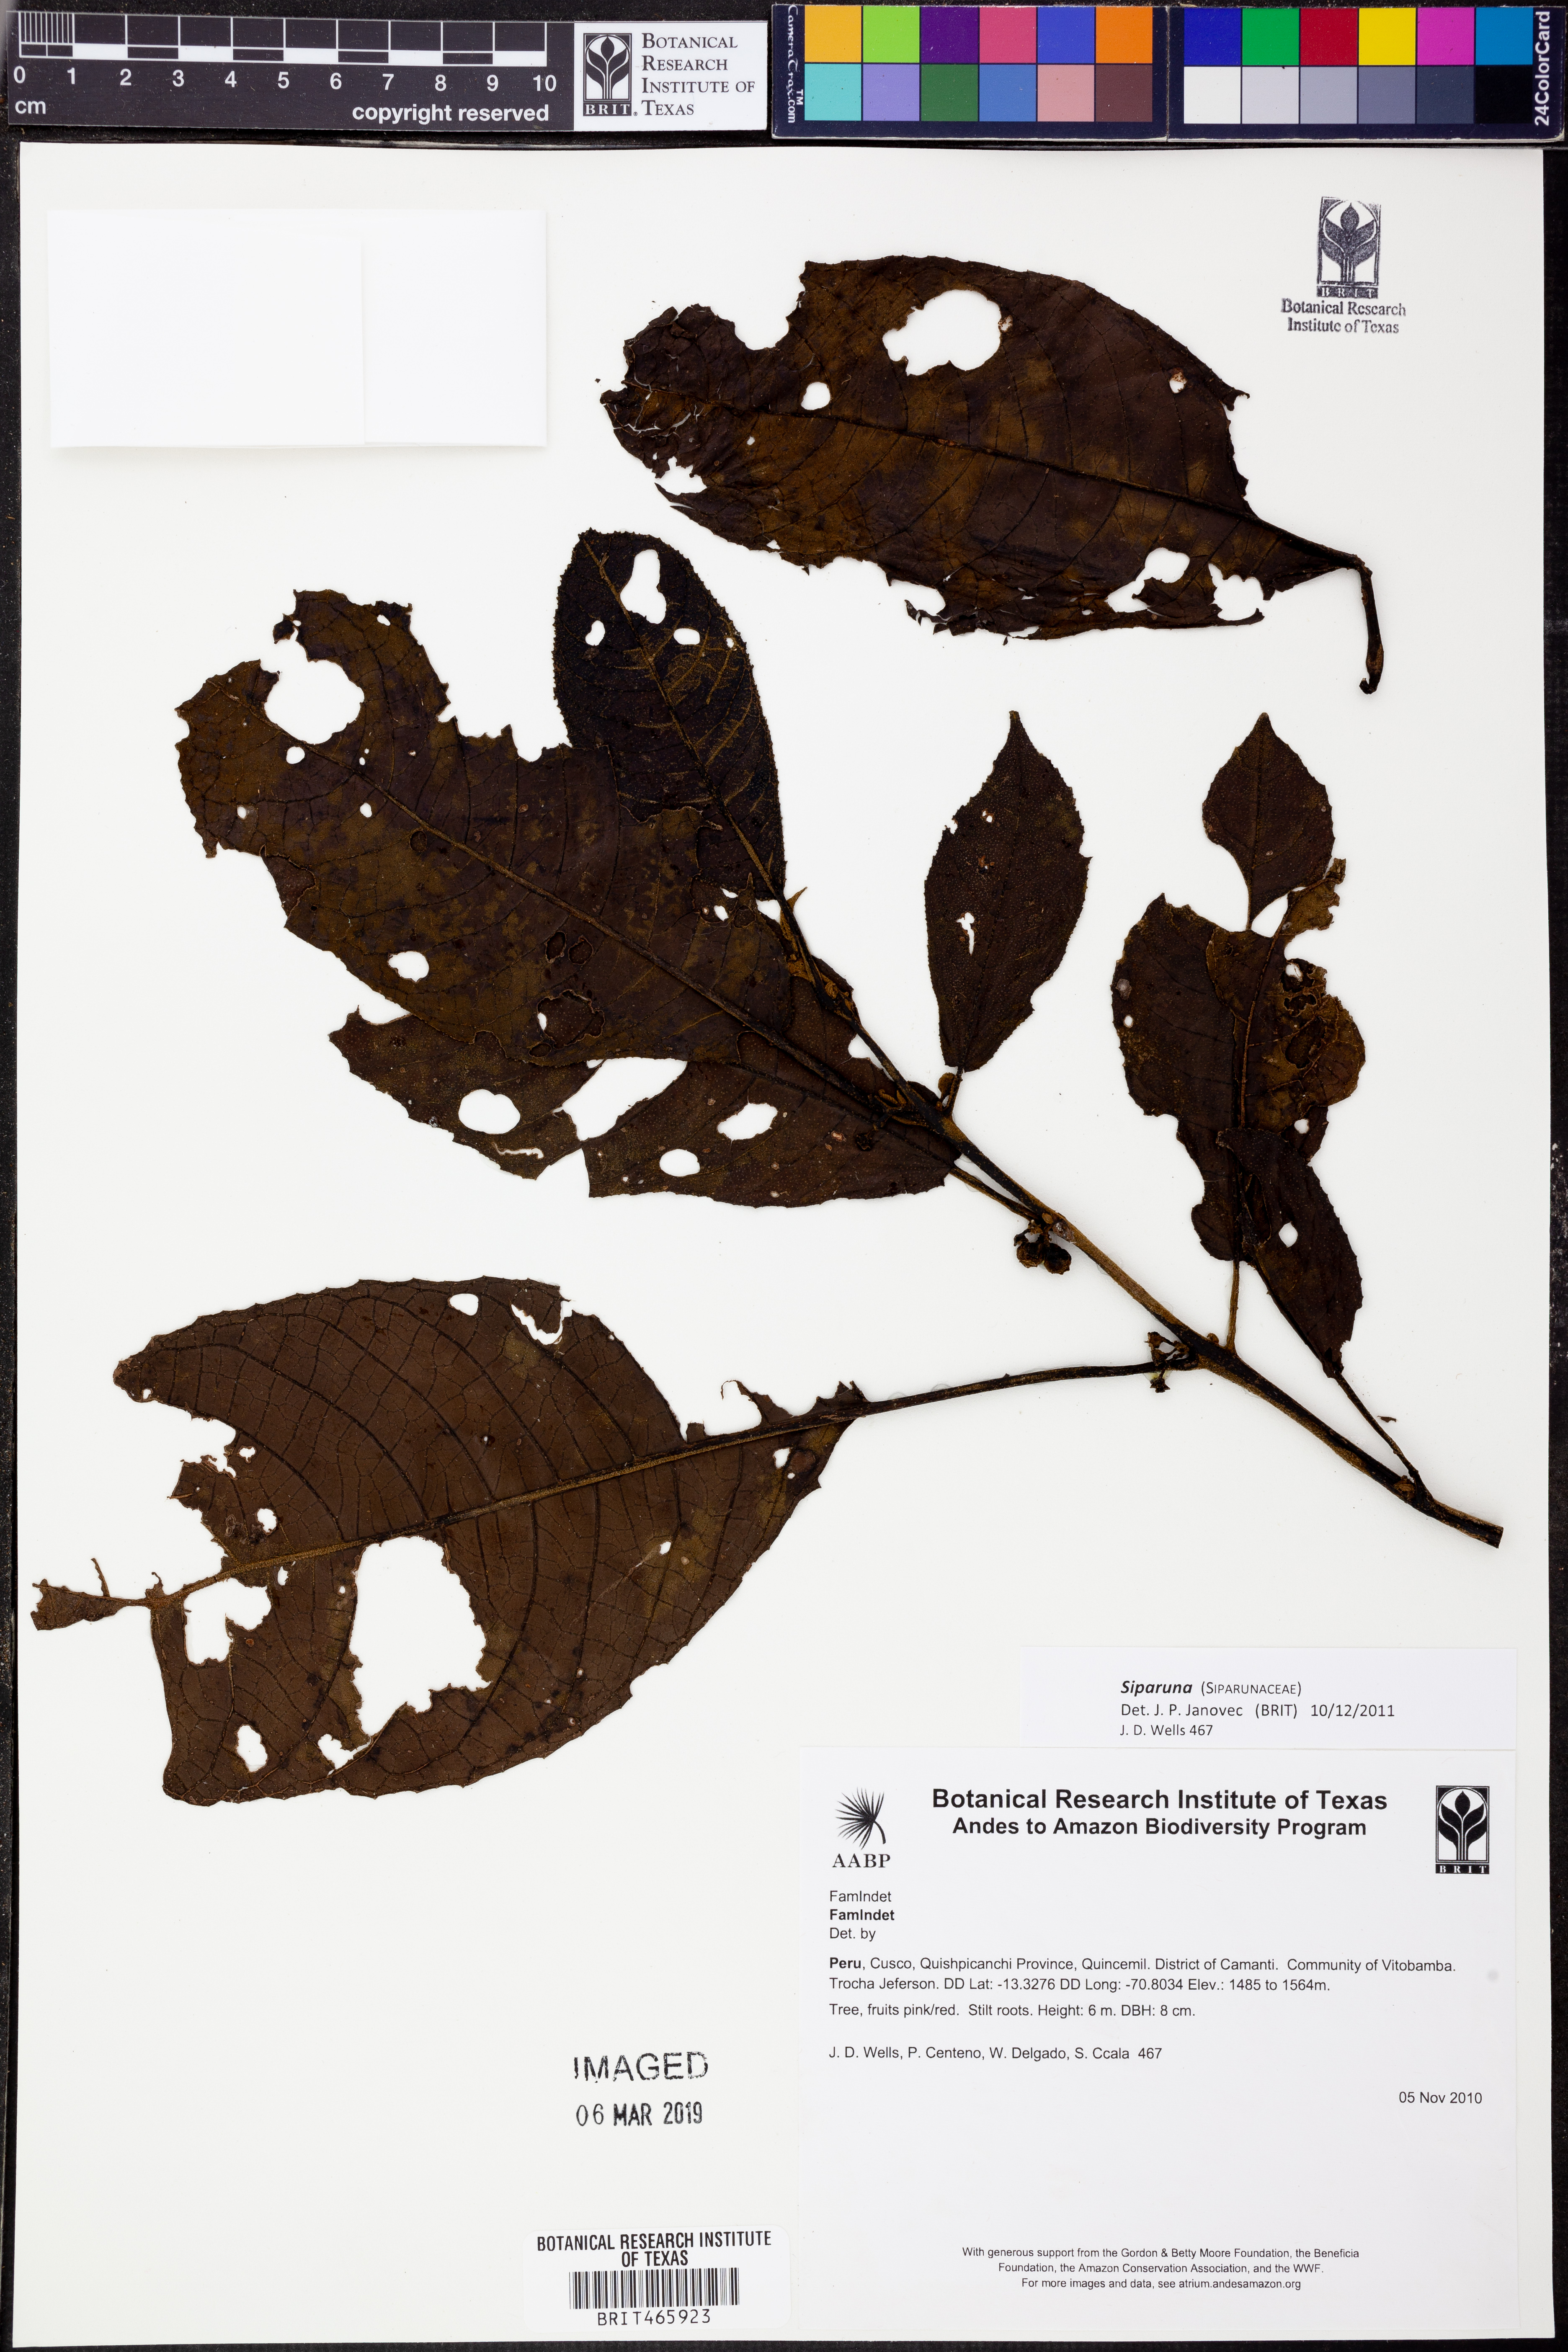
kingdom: Plantae
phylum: Tracheophyta
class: Magnoliopsida
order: Laurales
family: Siparunaceae
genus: Siparuna
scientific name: Siparuna
